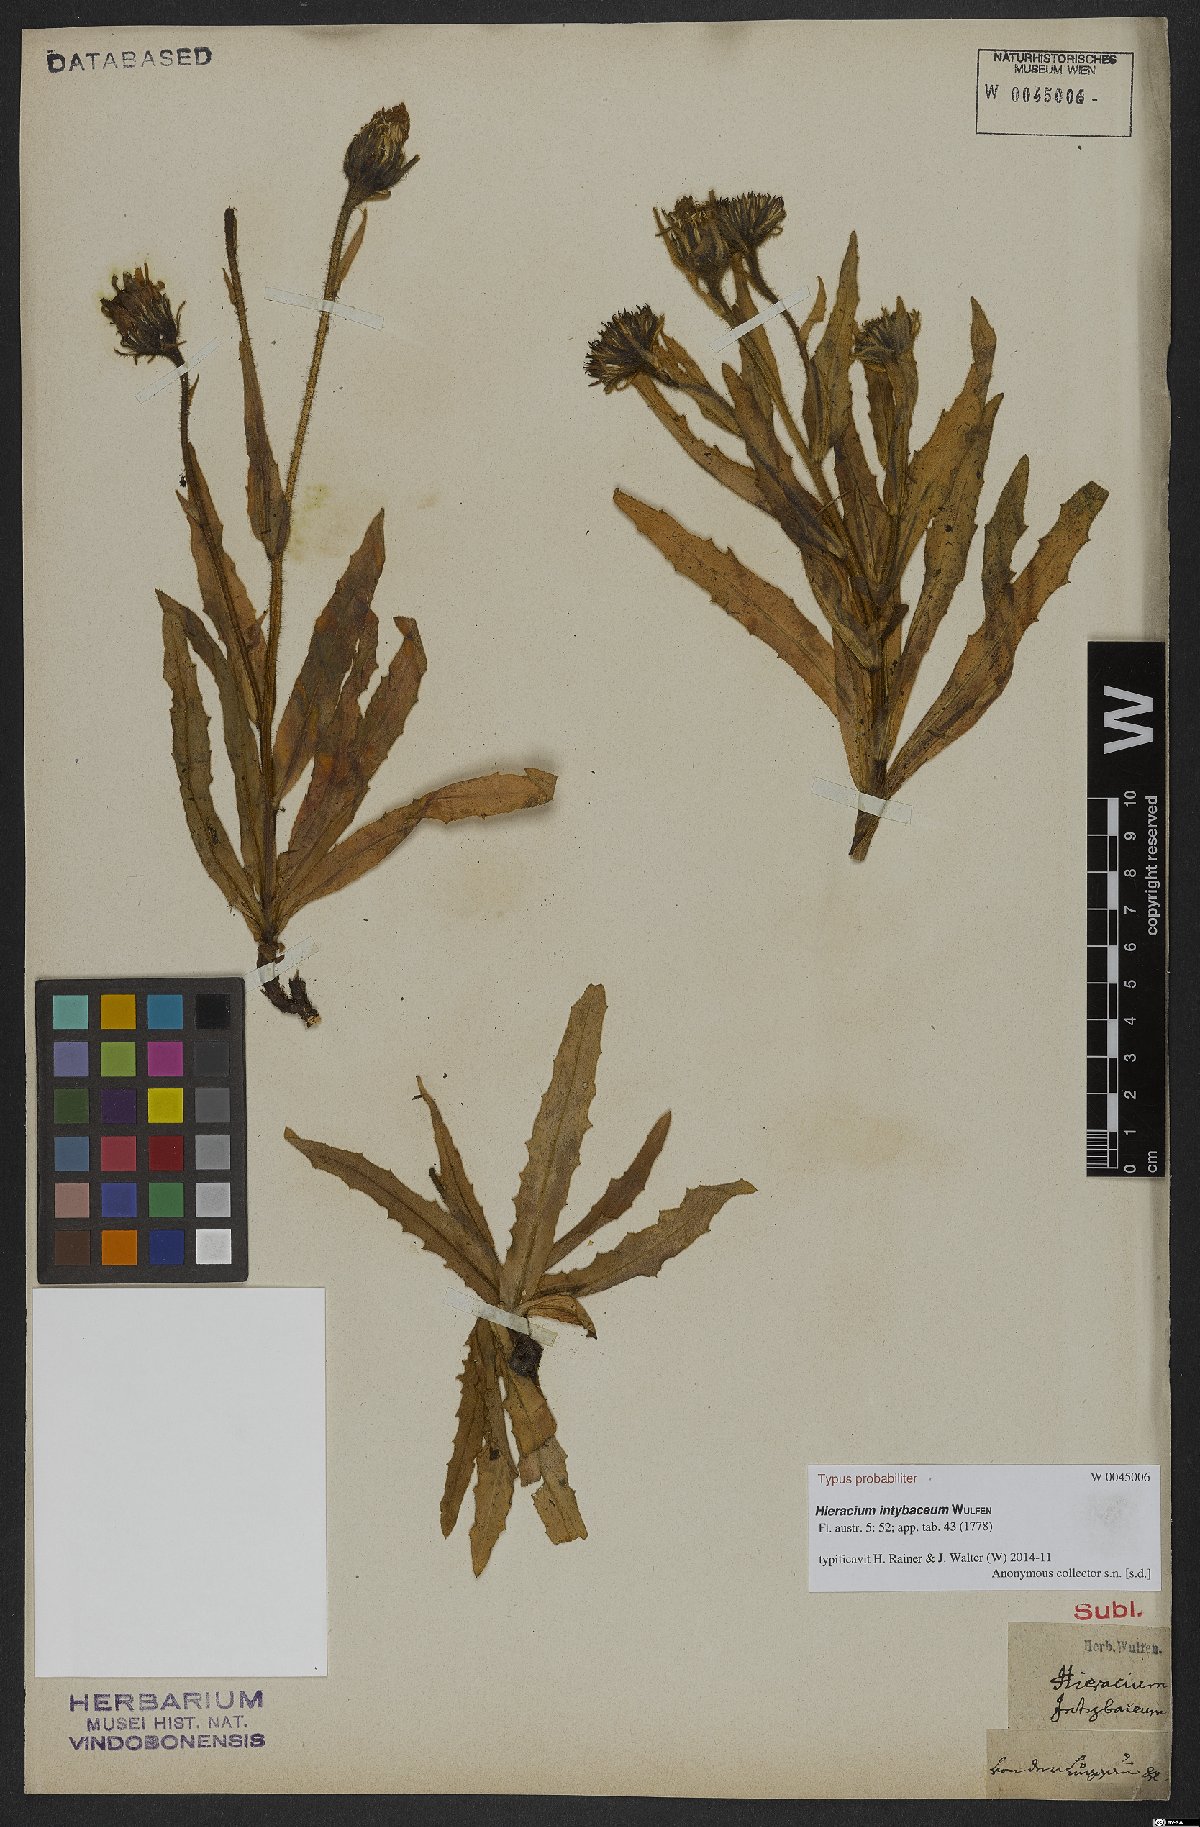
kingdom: Plantae
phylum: Tracheophyta
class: Magnoliopsida
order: Asterales
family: Asteraceae
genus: Schlagintweitia
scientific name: Schlagintweitia intybacea
